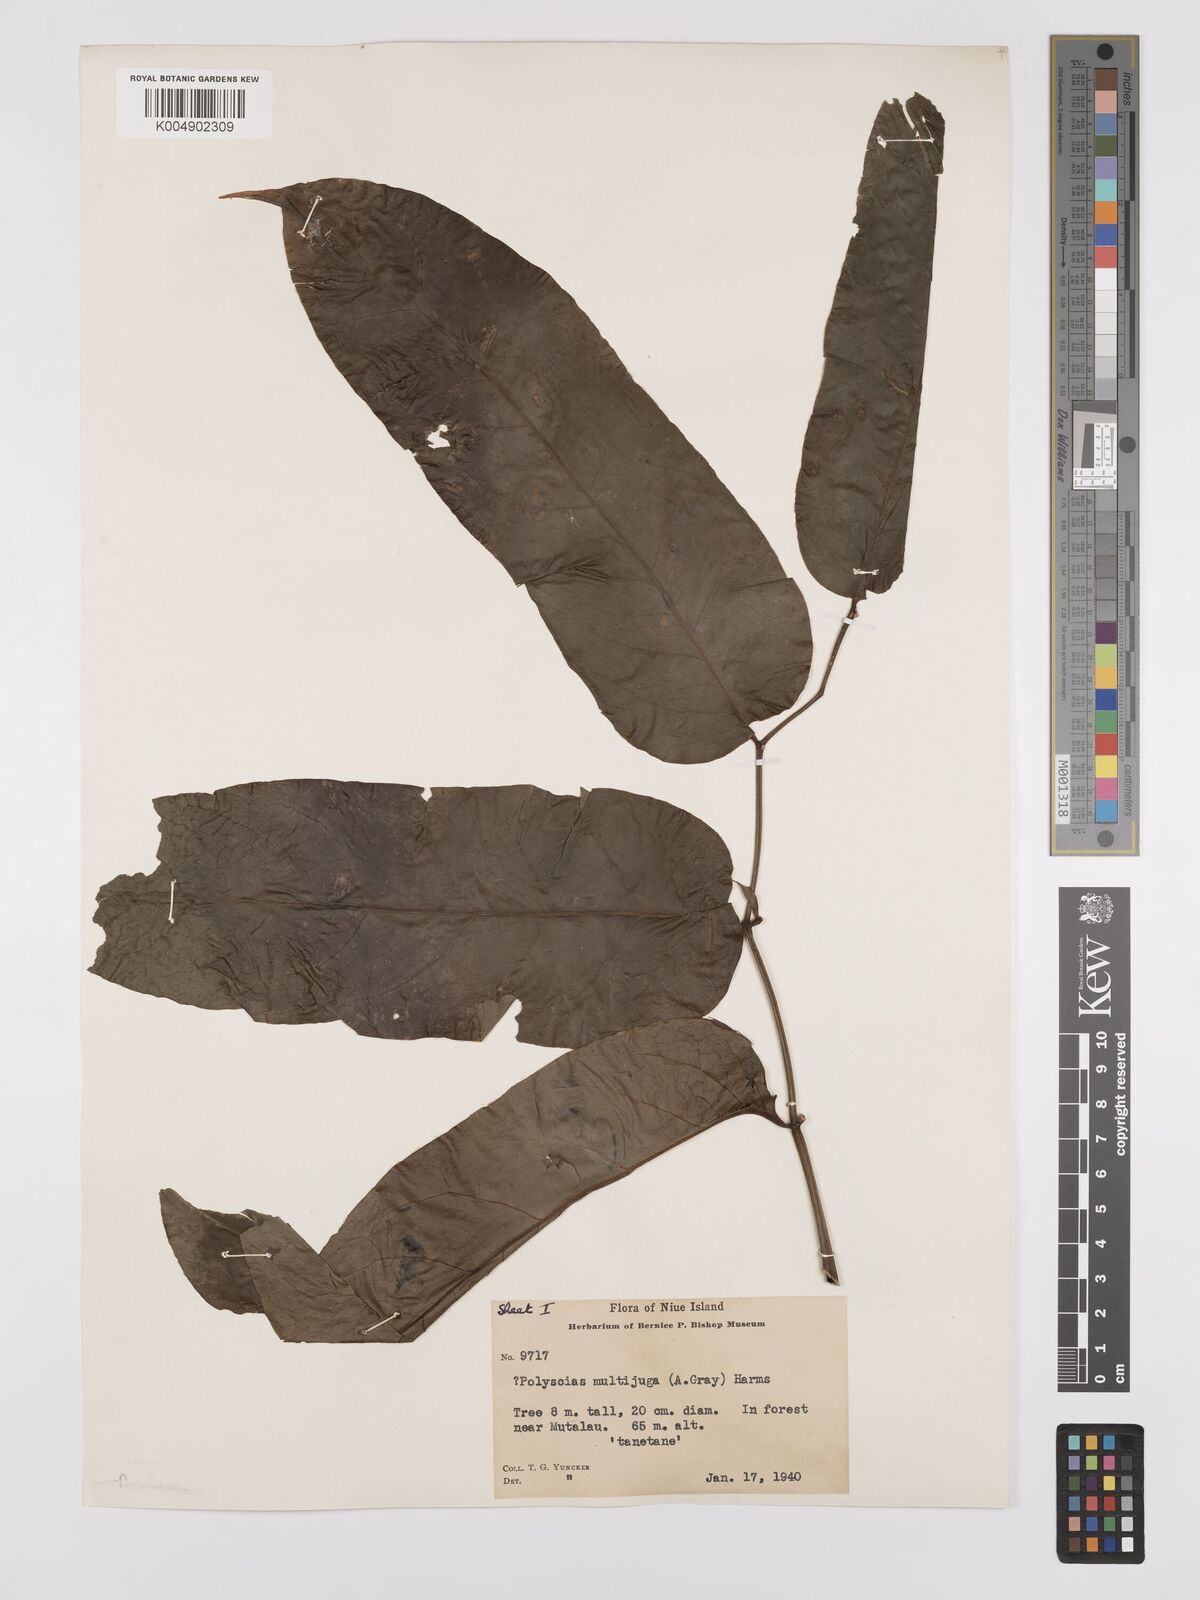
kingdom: Plantae
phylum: Tracheophyta
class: Magnoliopsida
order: Apiales
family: Araliaceae
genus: Polyscias
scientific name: Polyscias multijuga
